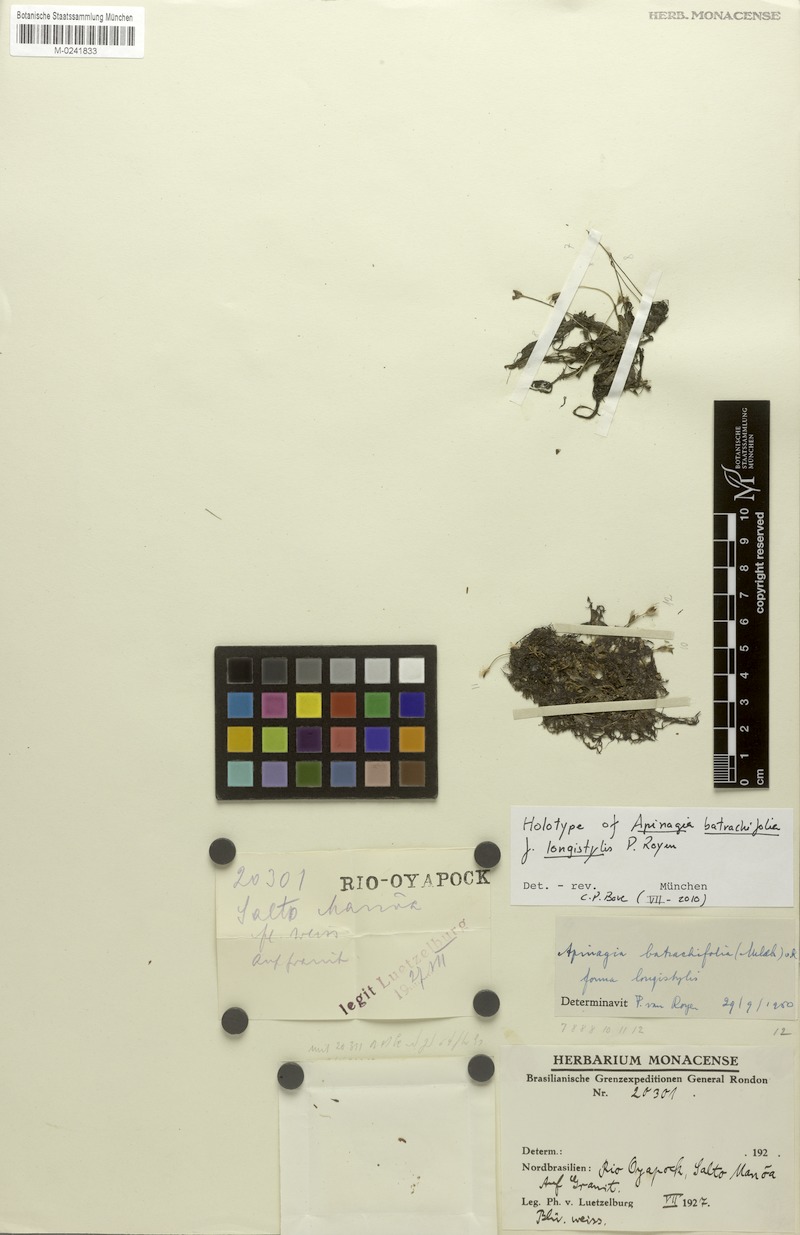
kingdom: Plantae
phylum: Tracheophyta
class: Magnoliopsida
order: Malpighiales
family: Podostemaceae
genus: Apinagia
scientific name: Apinagia batrachifolia
